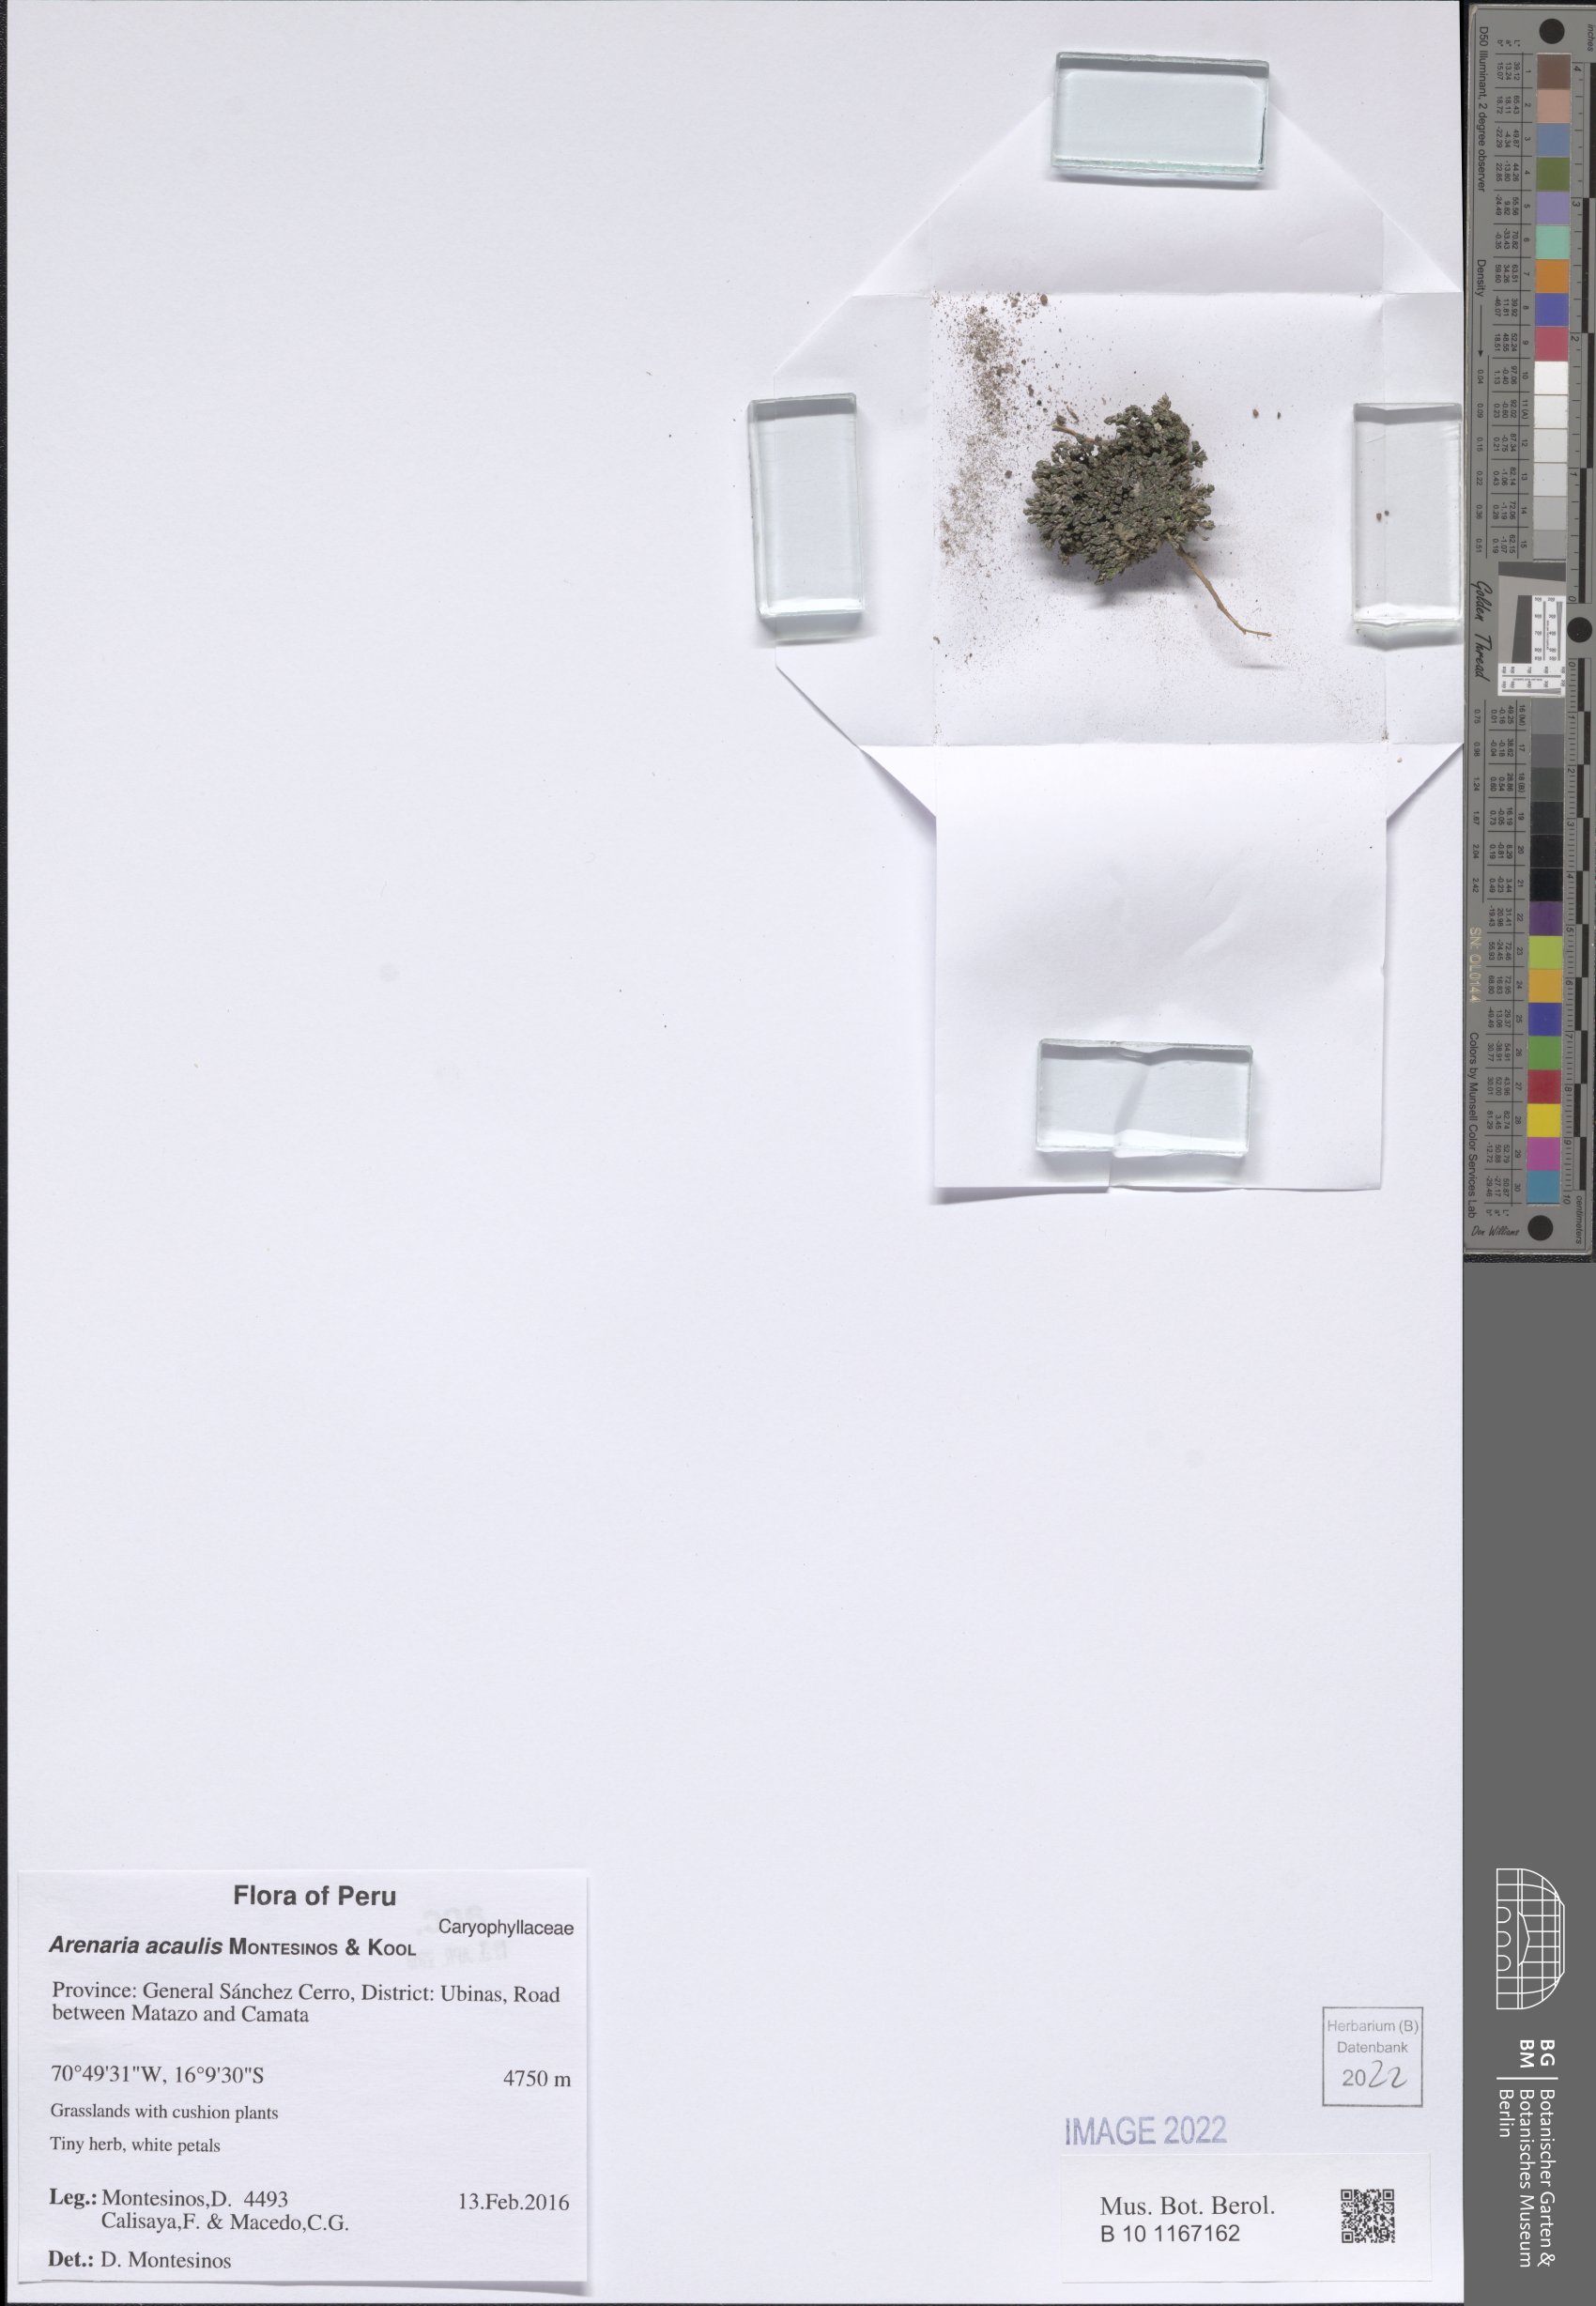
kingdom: Plantae
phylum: Tracheophyta
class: Magnoliopsida
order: Caryophyllales
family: Caryophyllaceae
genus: Arenaria
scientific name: Arenaria acaulis
